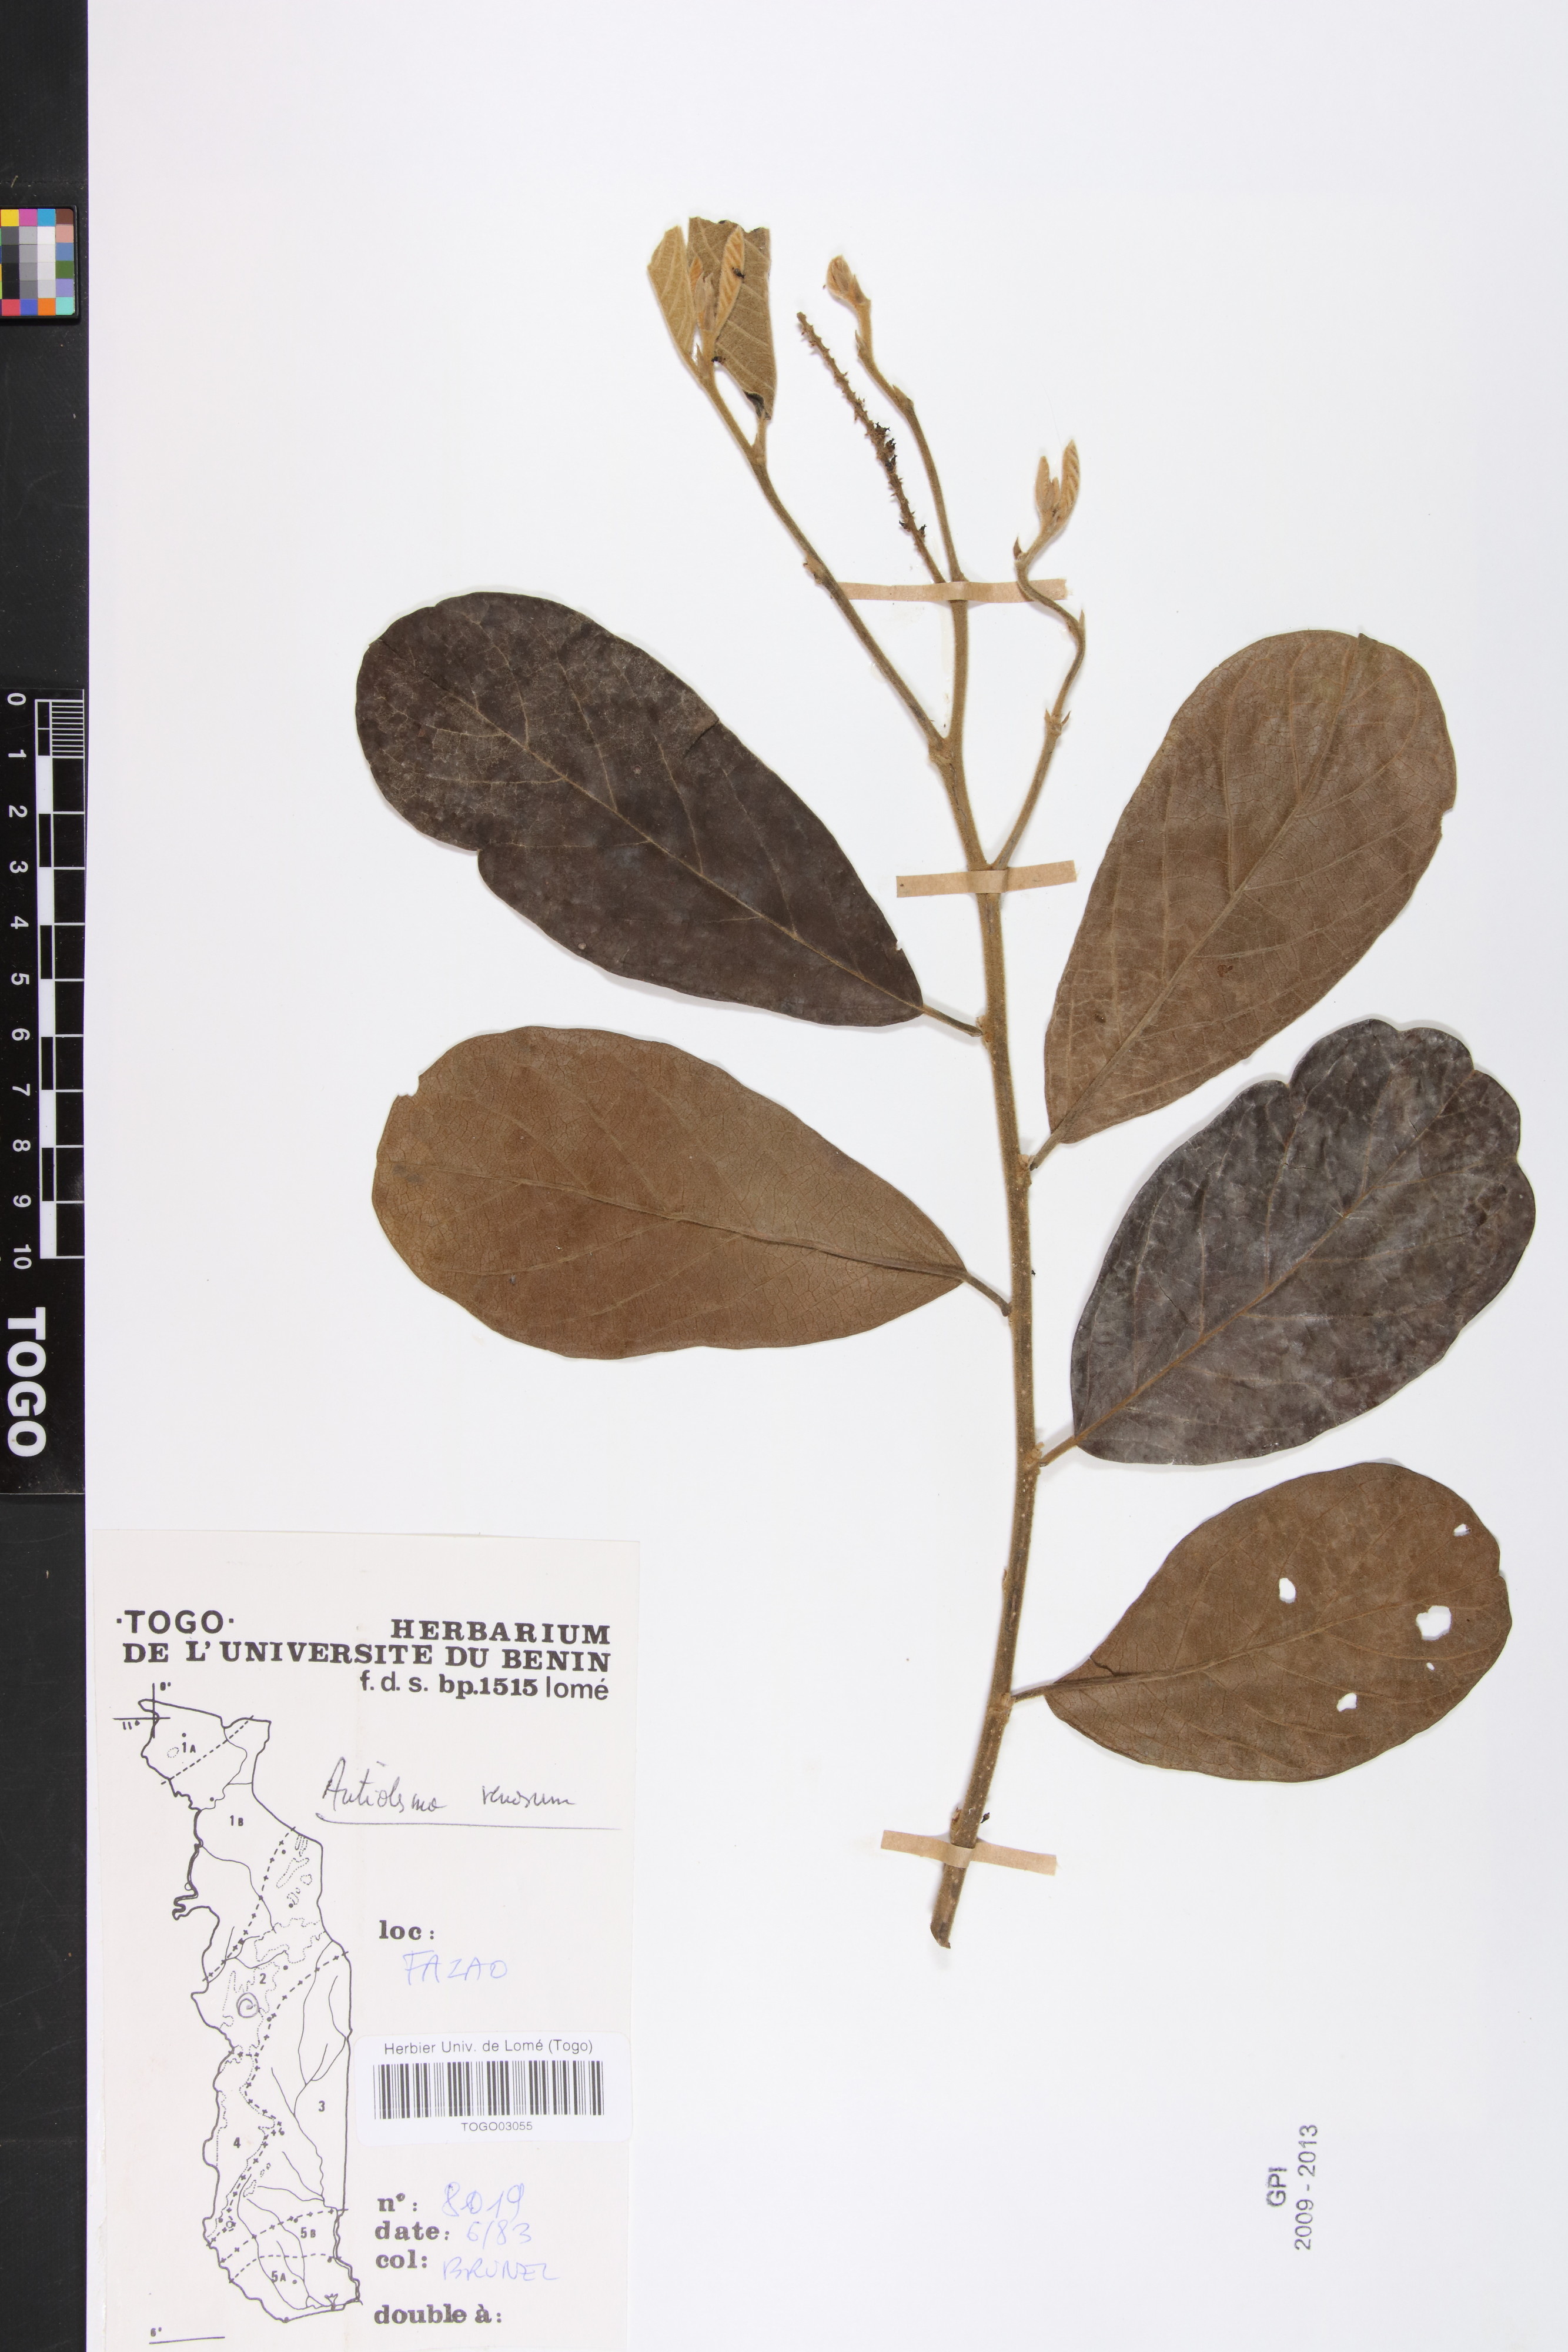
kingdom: Plantae
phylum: Tracheophyta
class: Magnoliopsida
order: Malpighiales
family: Phyllanthaceae
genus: Antidesma
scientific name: Antidesma venosum
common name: Tassel-berry
